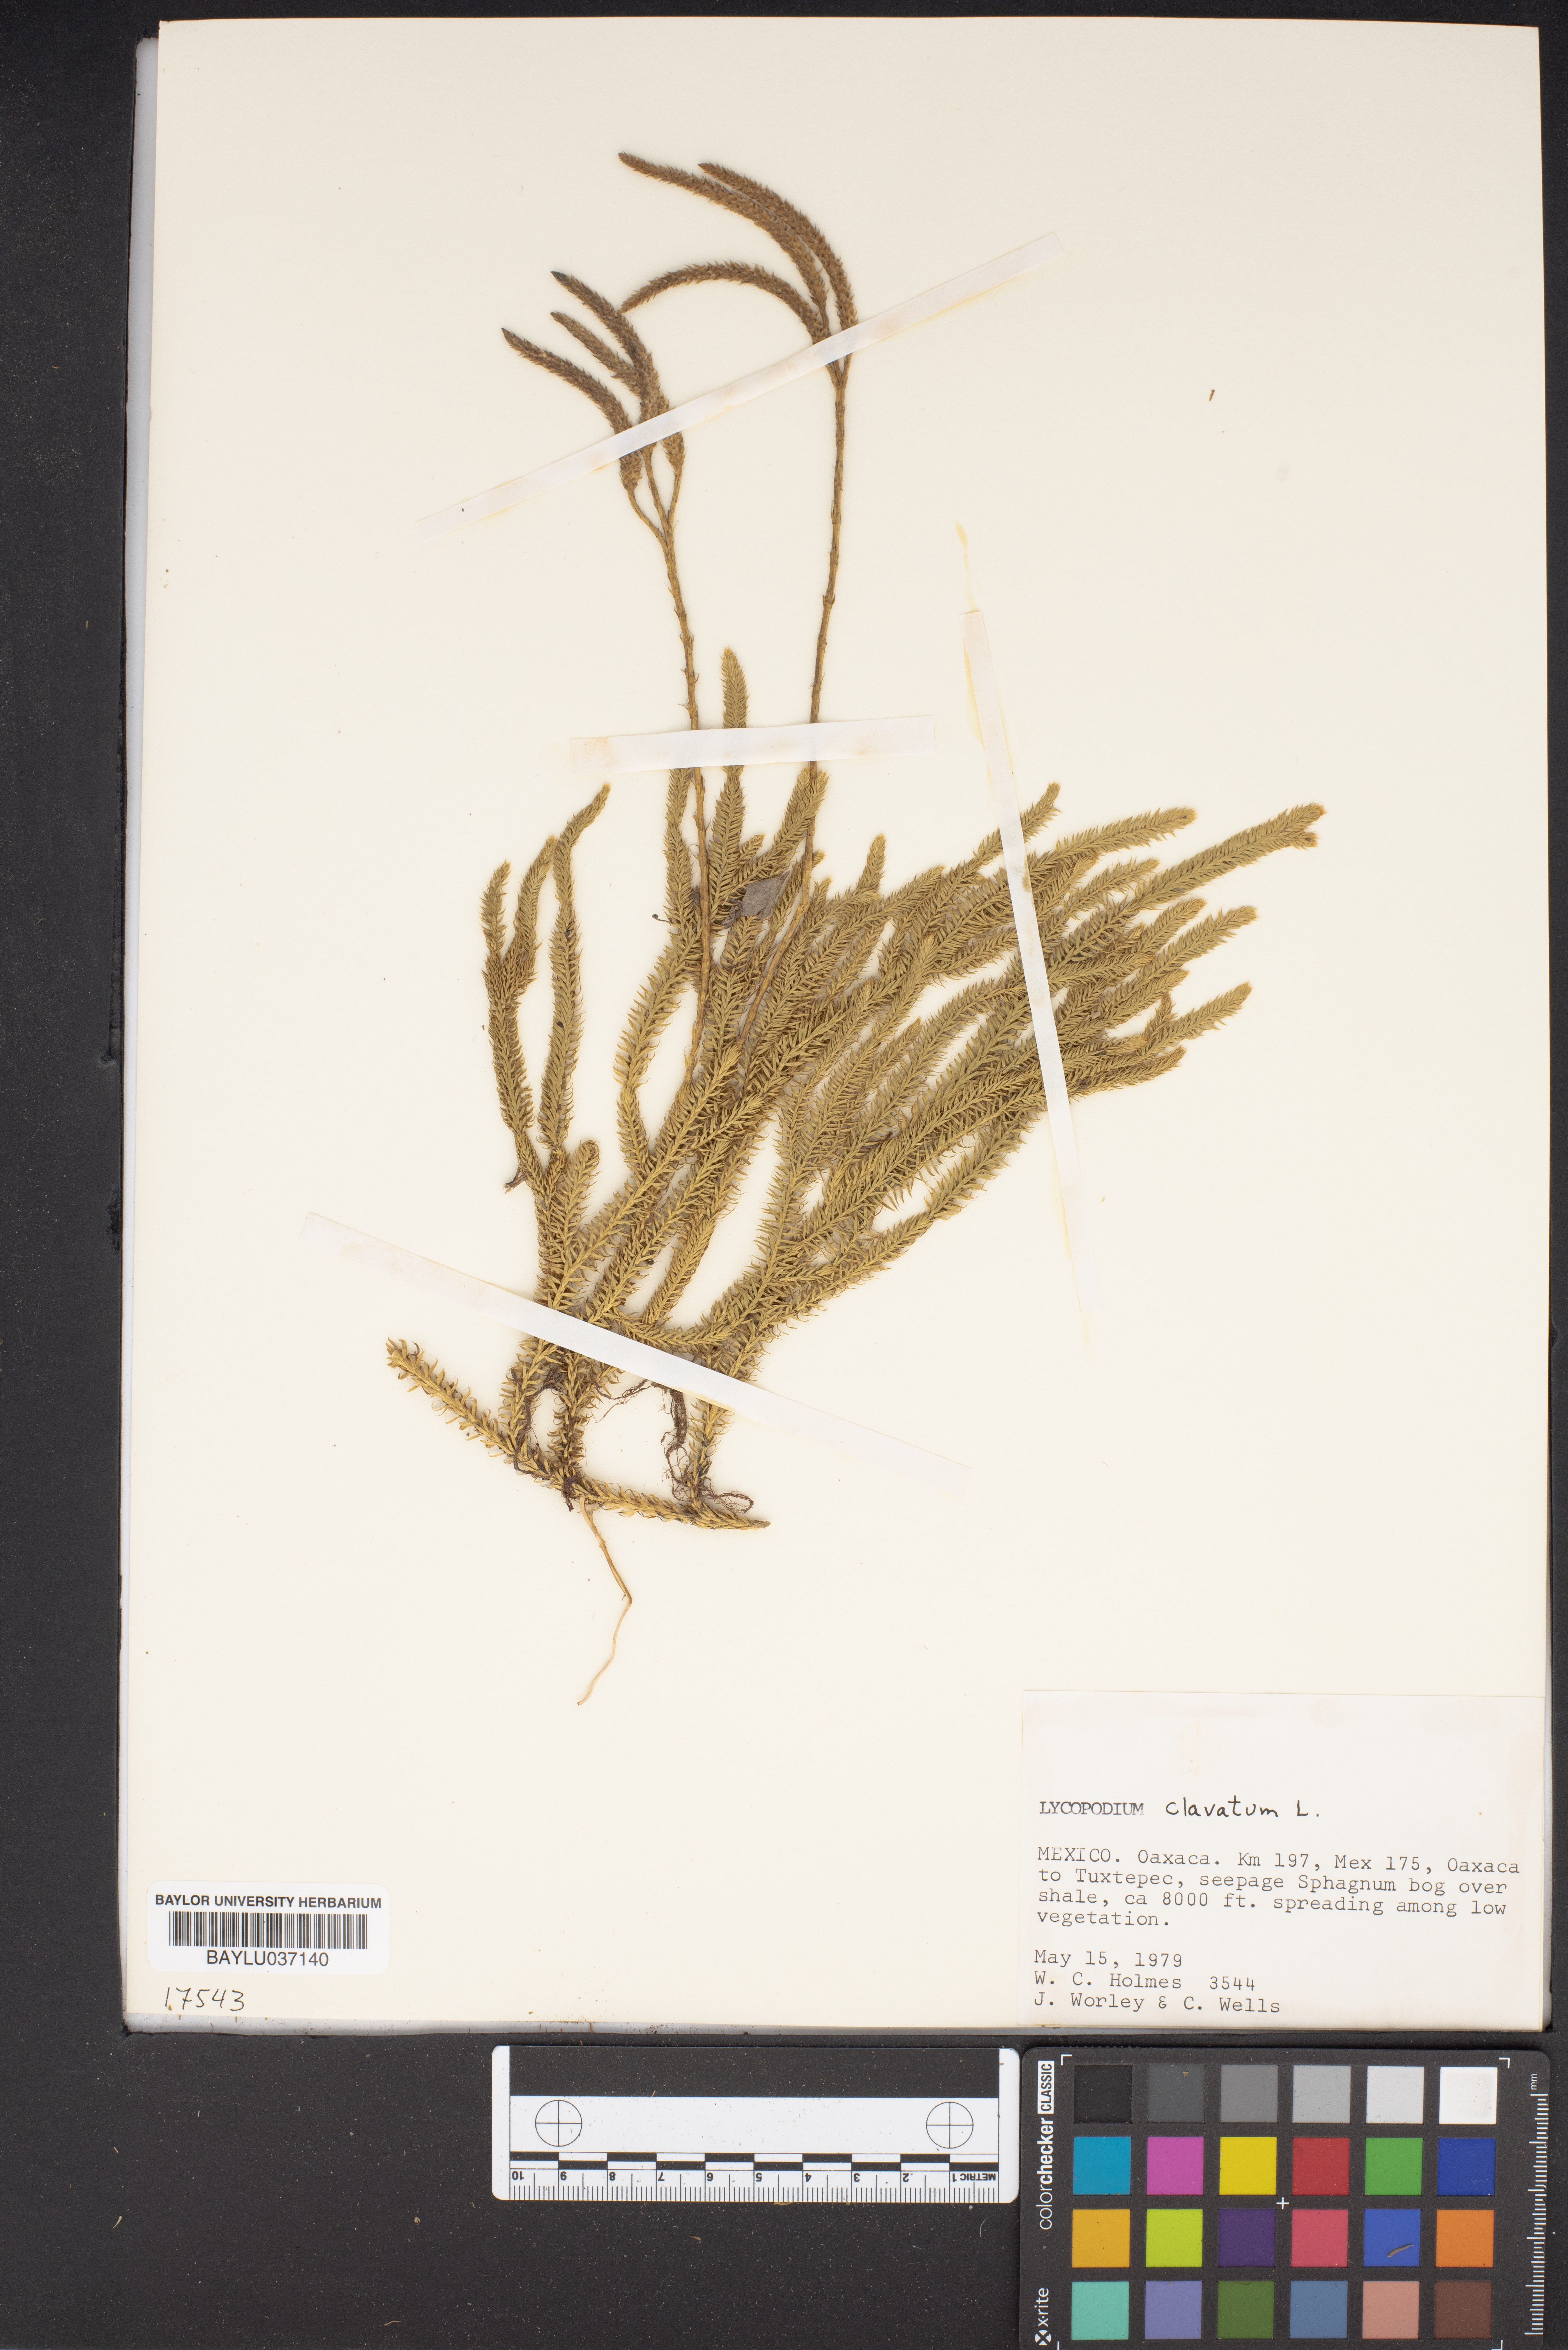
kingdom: Plantae
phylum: Tracheophyta
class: Lycopodiopsida
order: Lycopodiales
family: Lycopodiaceae
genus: Lycopodium
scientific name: Lycopodium clavatum
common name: Stag's-horn clubmoss
